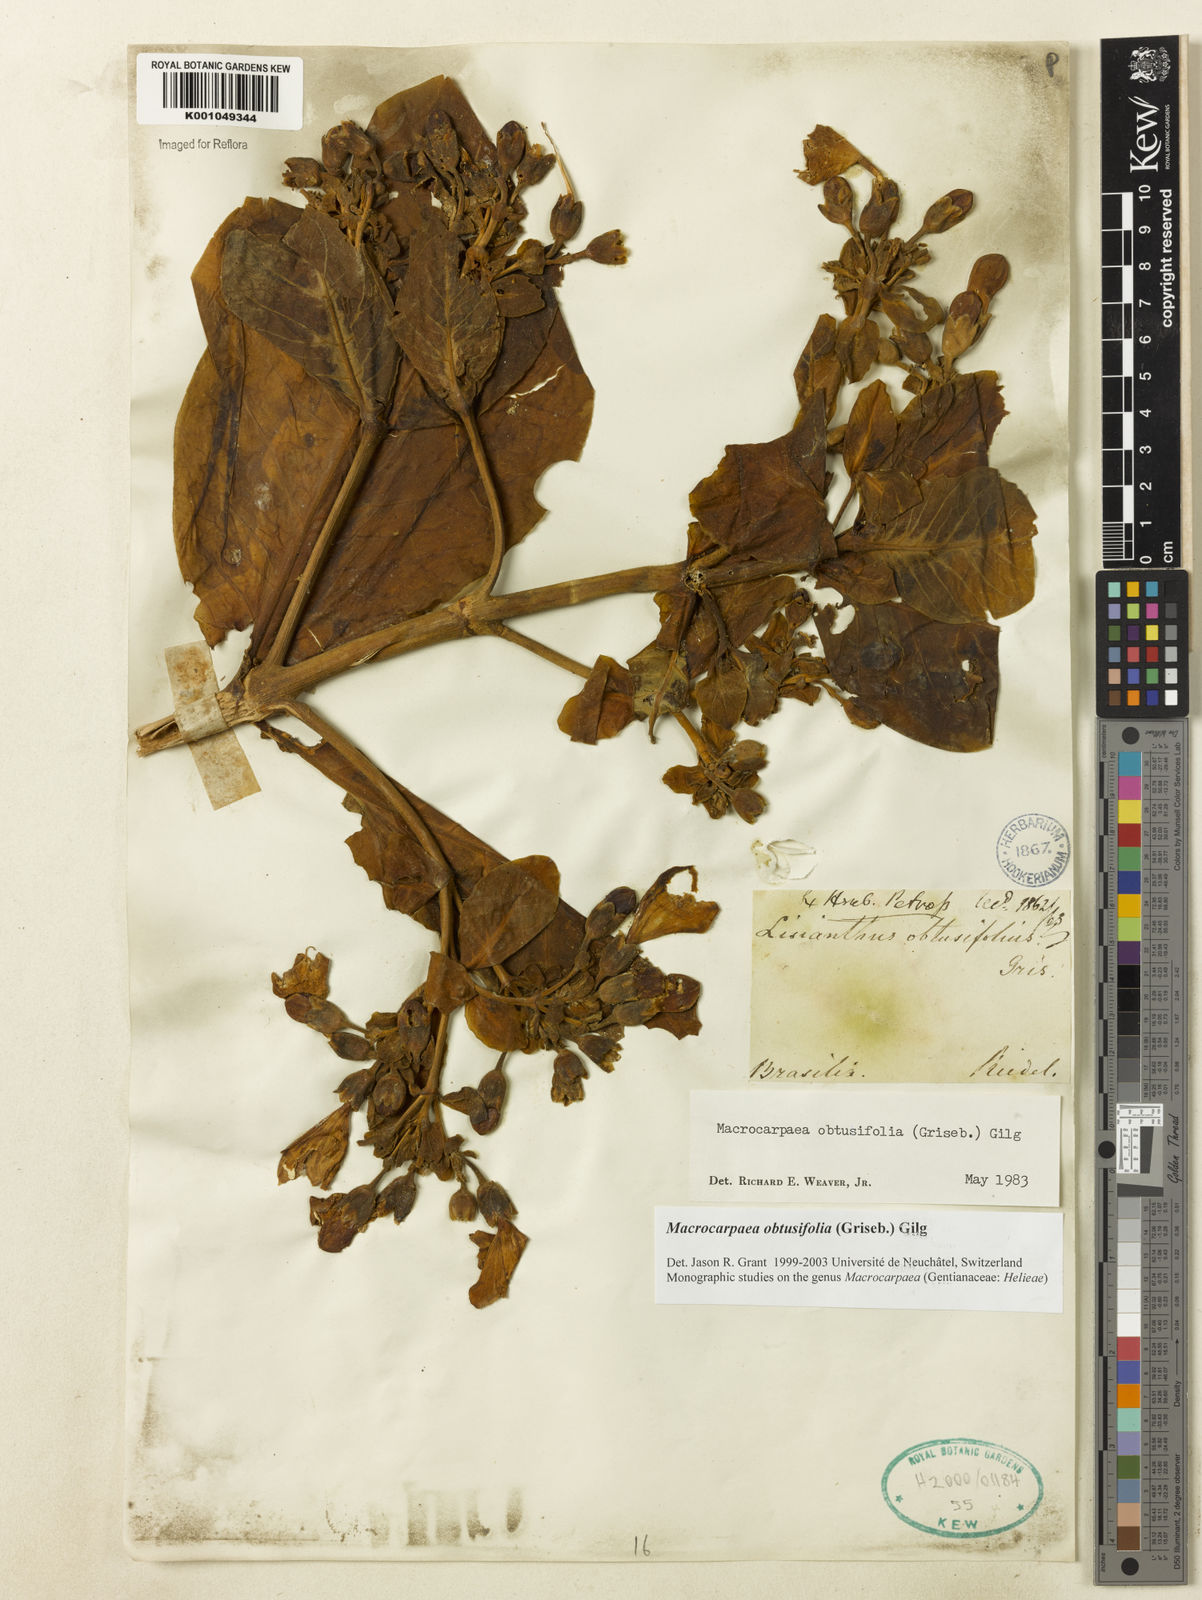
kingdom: Plantae
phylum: Tracheophyta
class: Magnoliopsida
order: Gentianales
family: Gentianaceae
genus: Macrocarpaea
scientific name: Macrocarpaea obtusifolia
